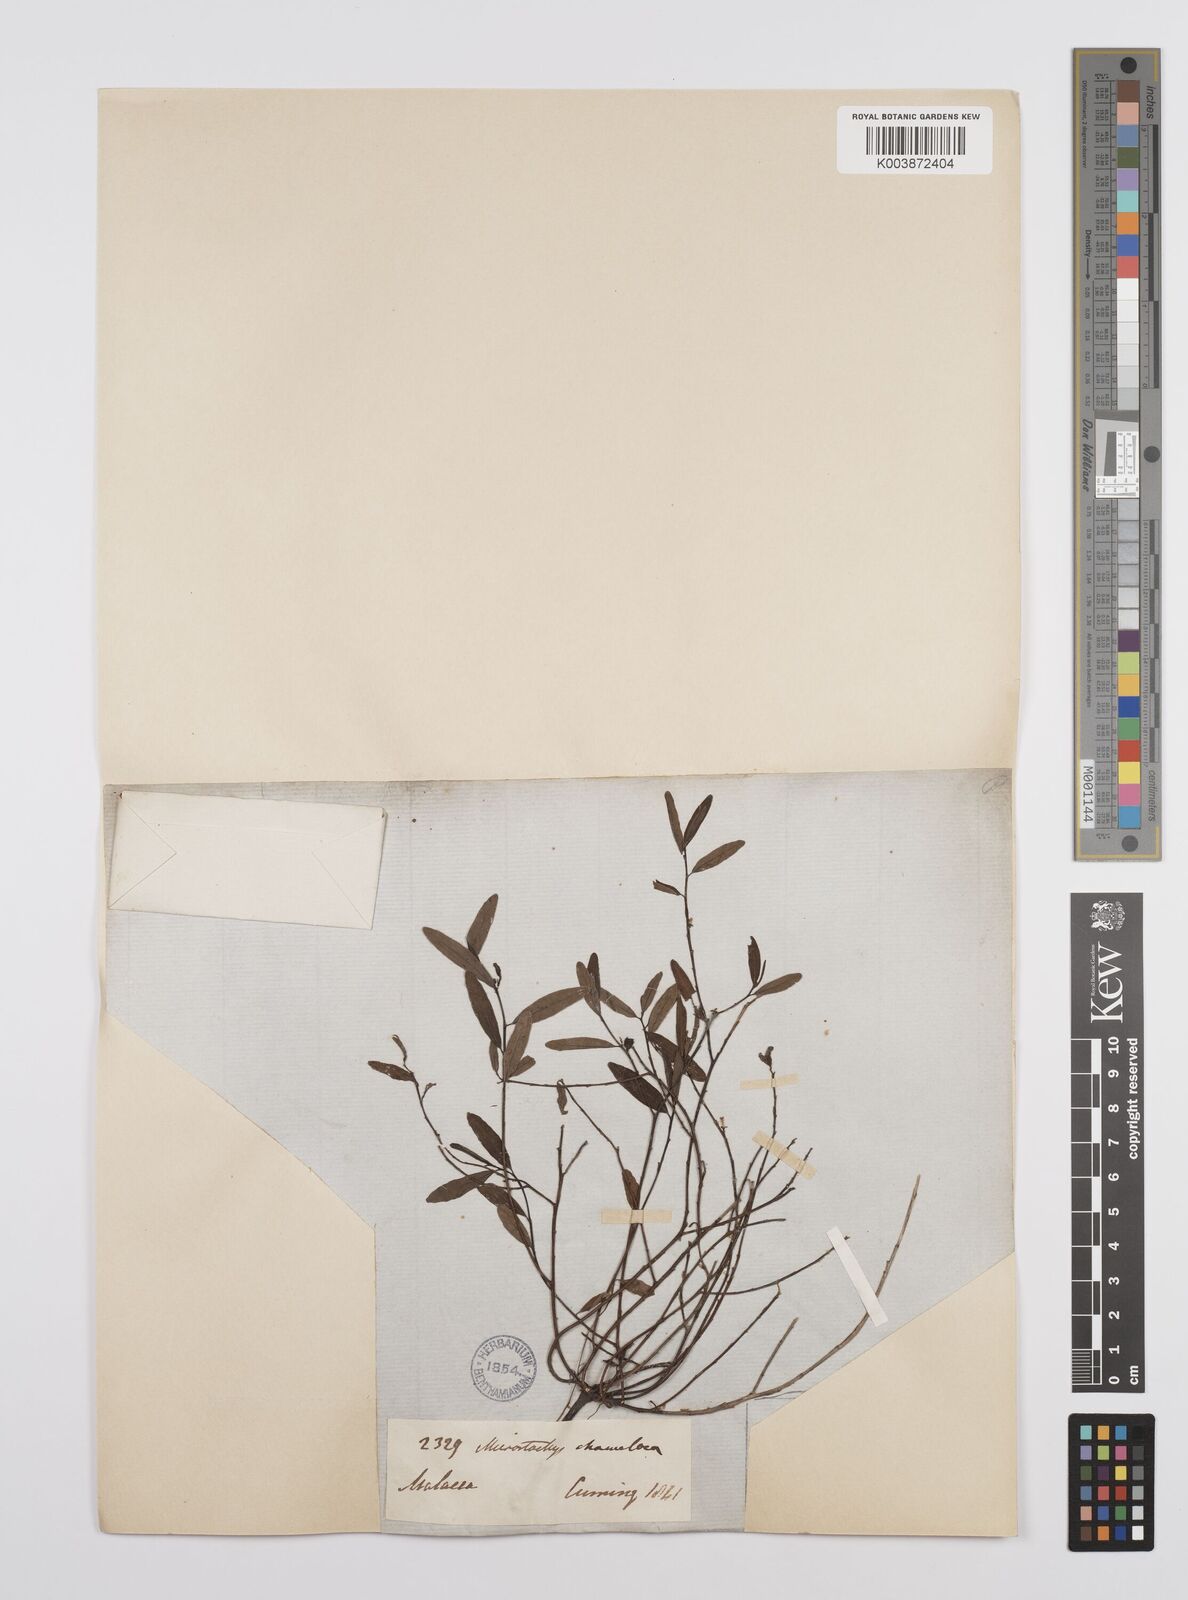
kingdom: Plantae
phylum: Tracheophyta
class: Magnoliopsida
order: Malpighiales
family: Euphorbiaceae
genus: Microstachys
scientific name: Microstachys chamaelea
